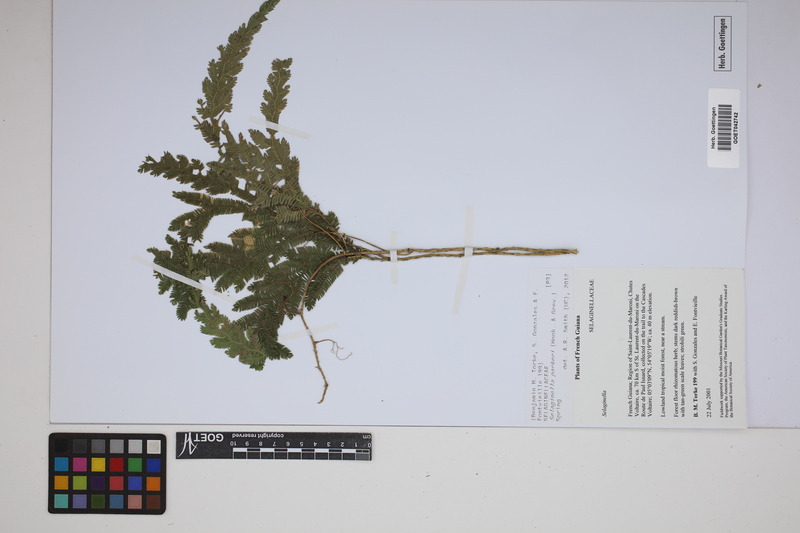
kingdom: Plantae
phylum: Tracheophyta
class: Lycopodiopsida
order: Selaginellales
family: Selaginellaceae
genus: Selaginella
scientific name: Selaginella parkeri
